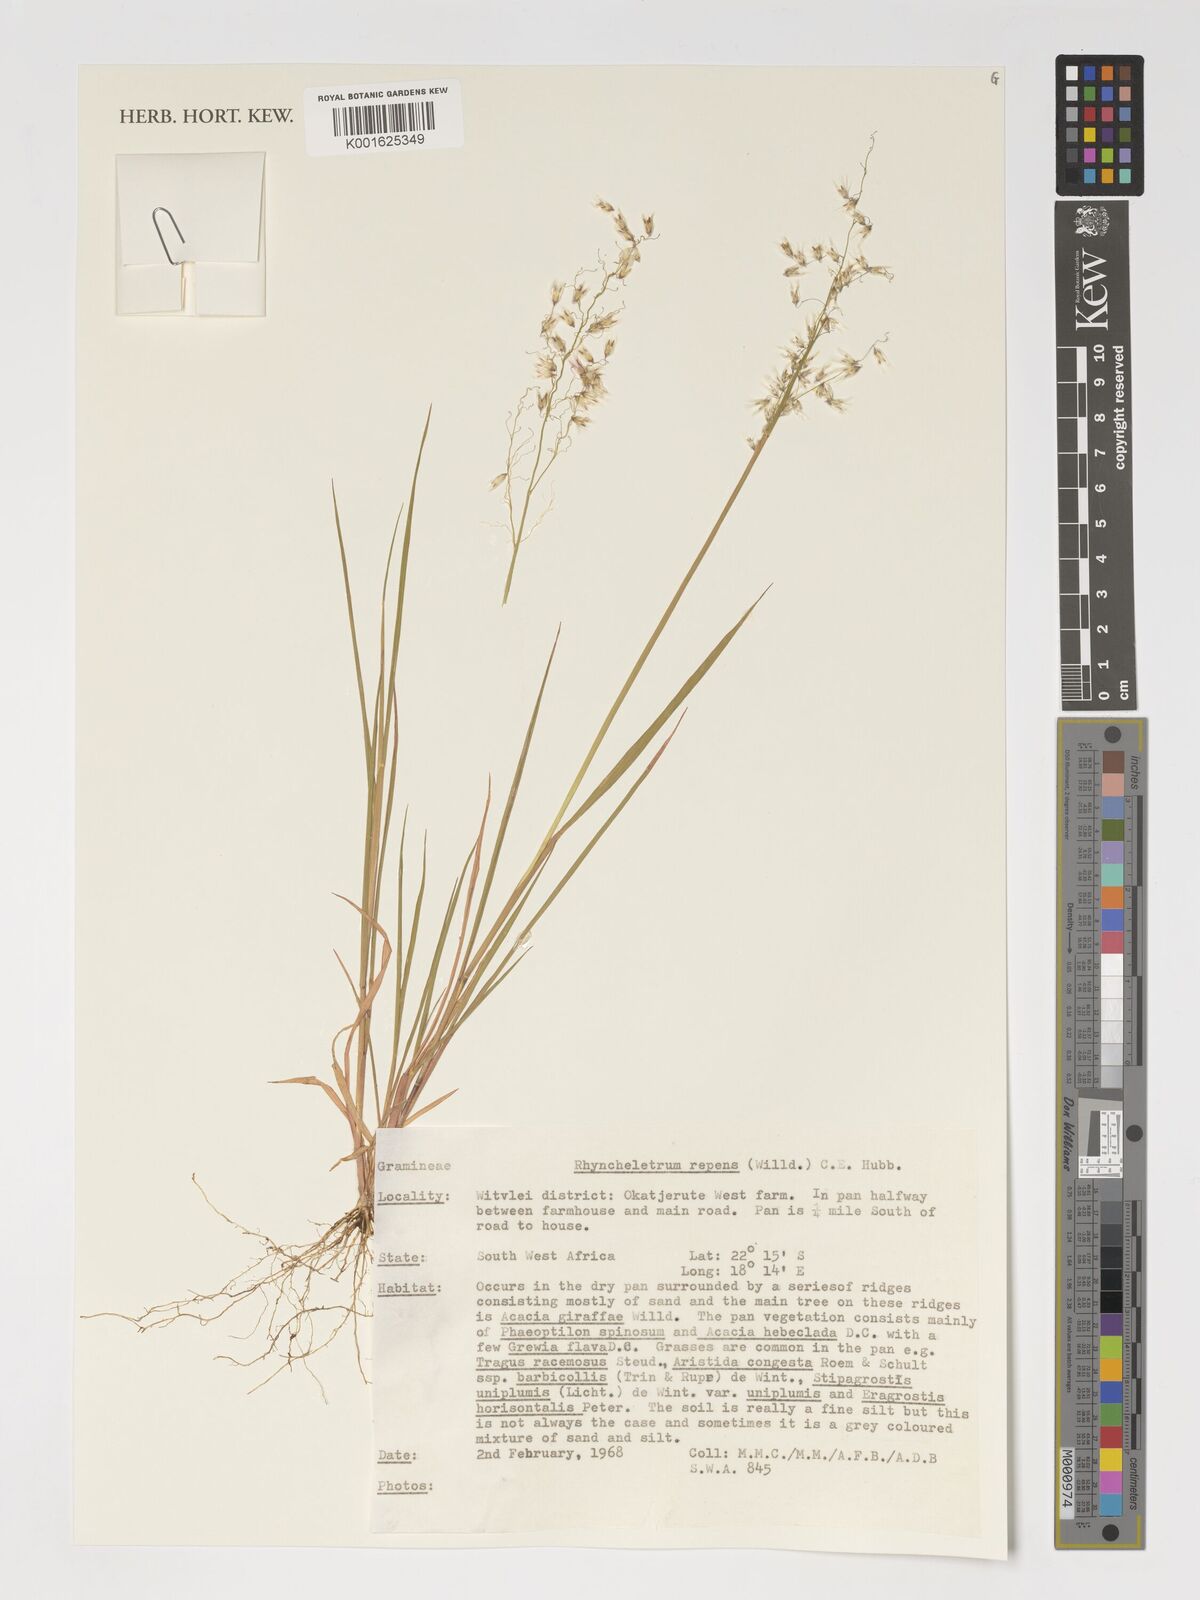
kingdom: Plantae
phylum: Tracheophyta
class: Liliopsida
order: Poales
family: Poaceae
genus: Melinis
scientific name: Melinis repens
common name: Rose natal grass
